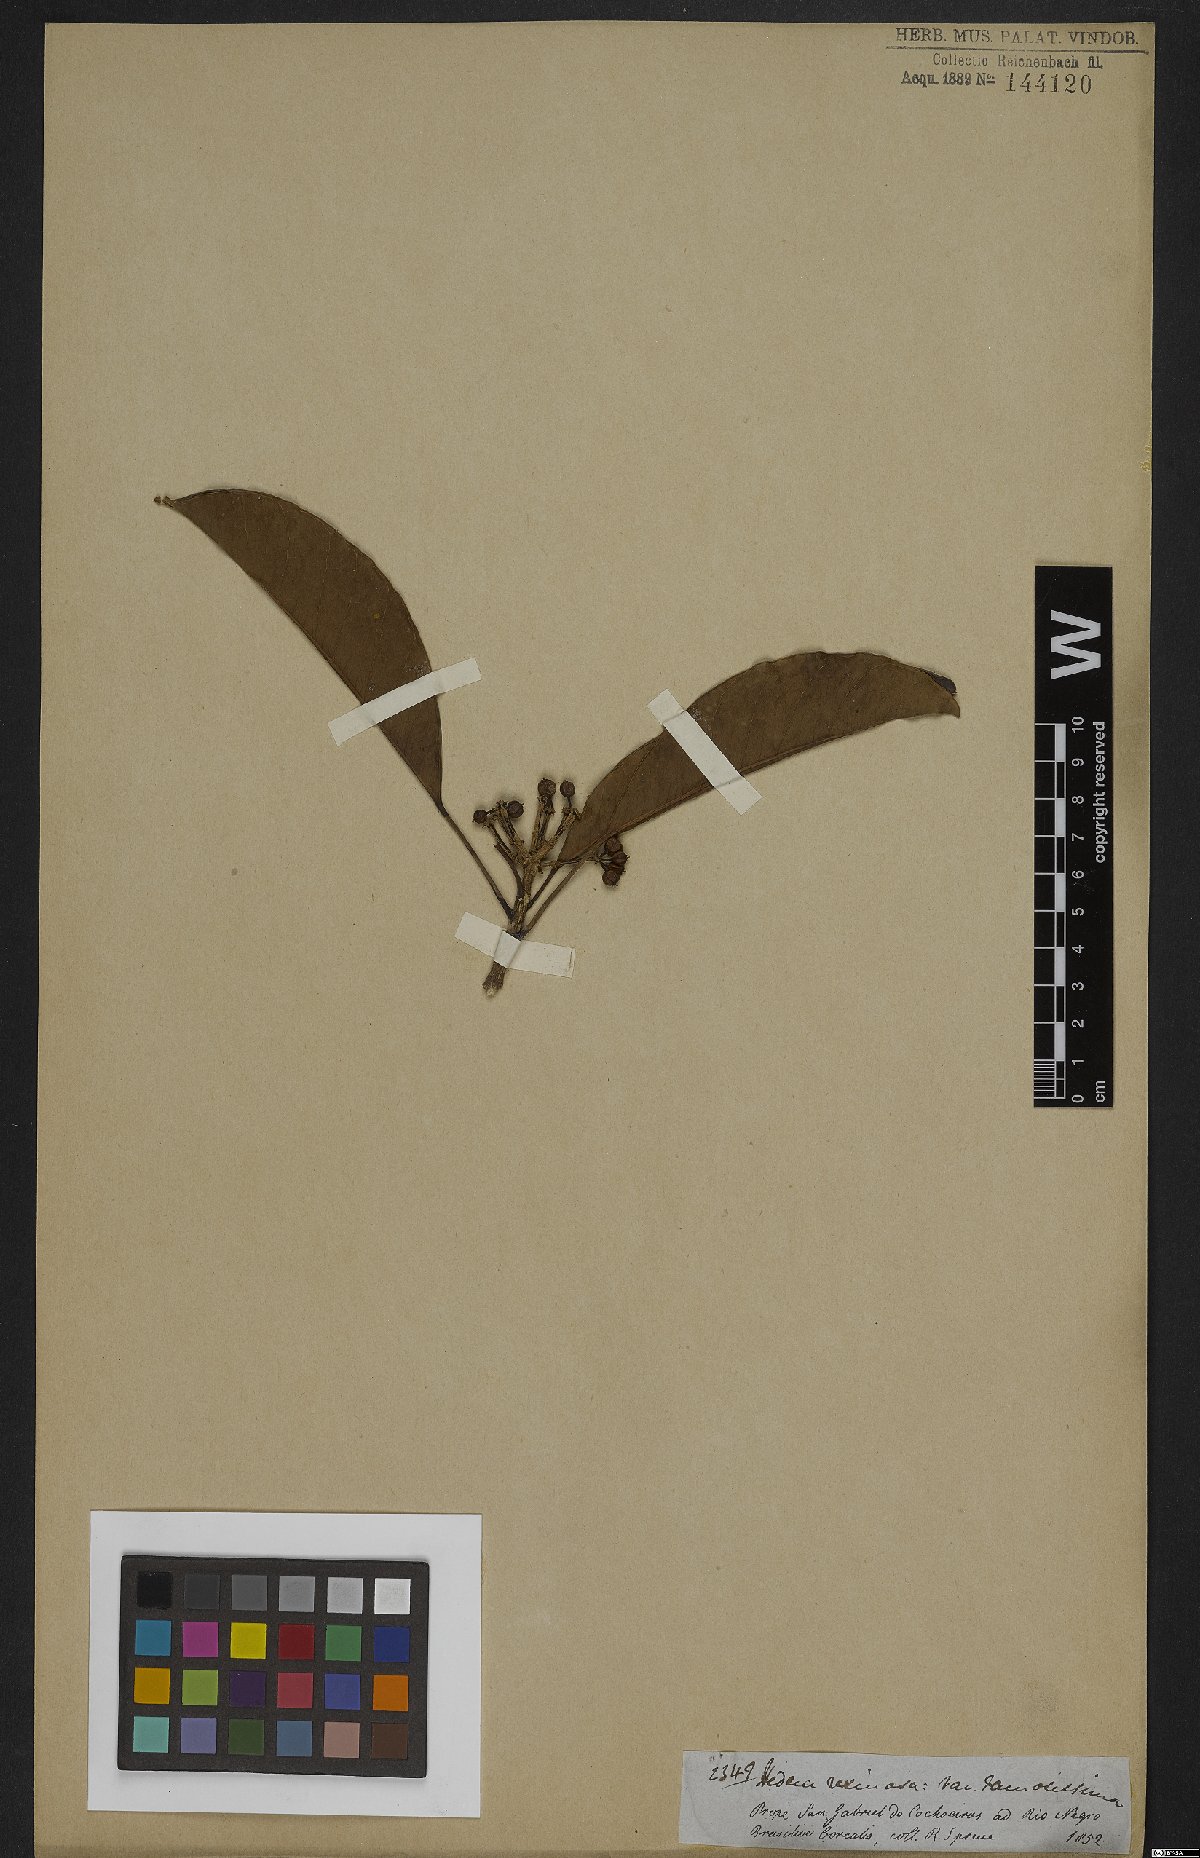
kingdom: Plantae
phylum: Tracheophyta
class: Magnoliopsida
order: Apiales
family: Araliaceae
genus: Dendropanax
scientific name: Dendropanax resinosus
